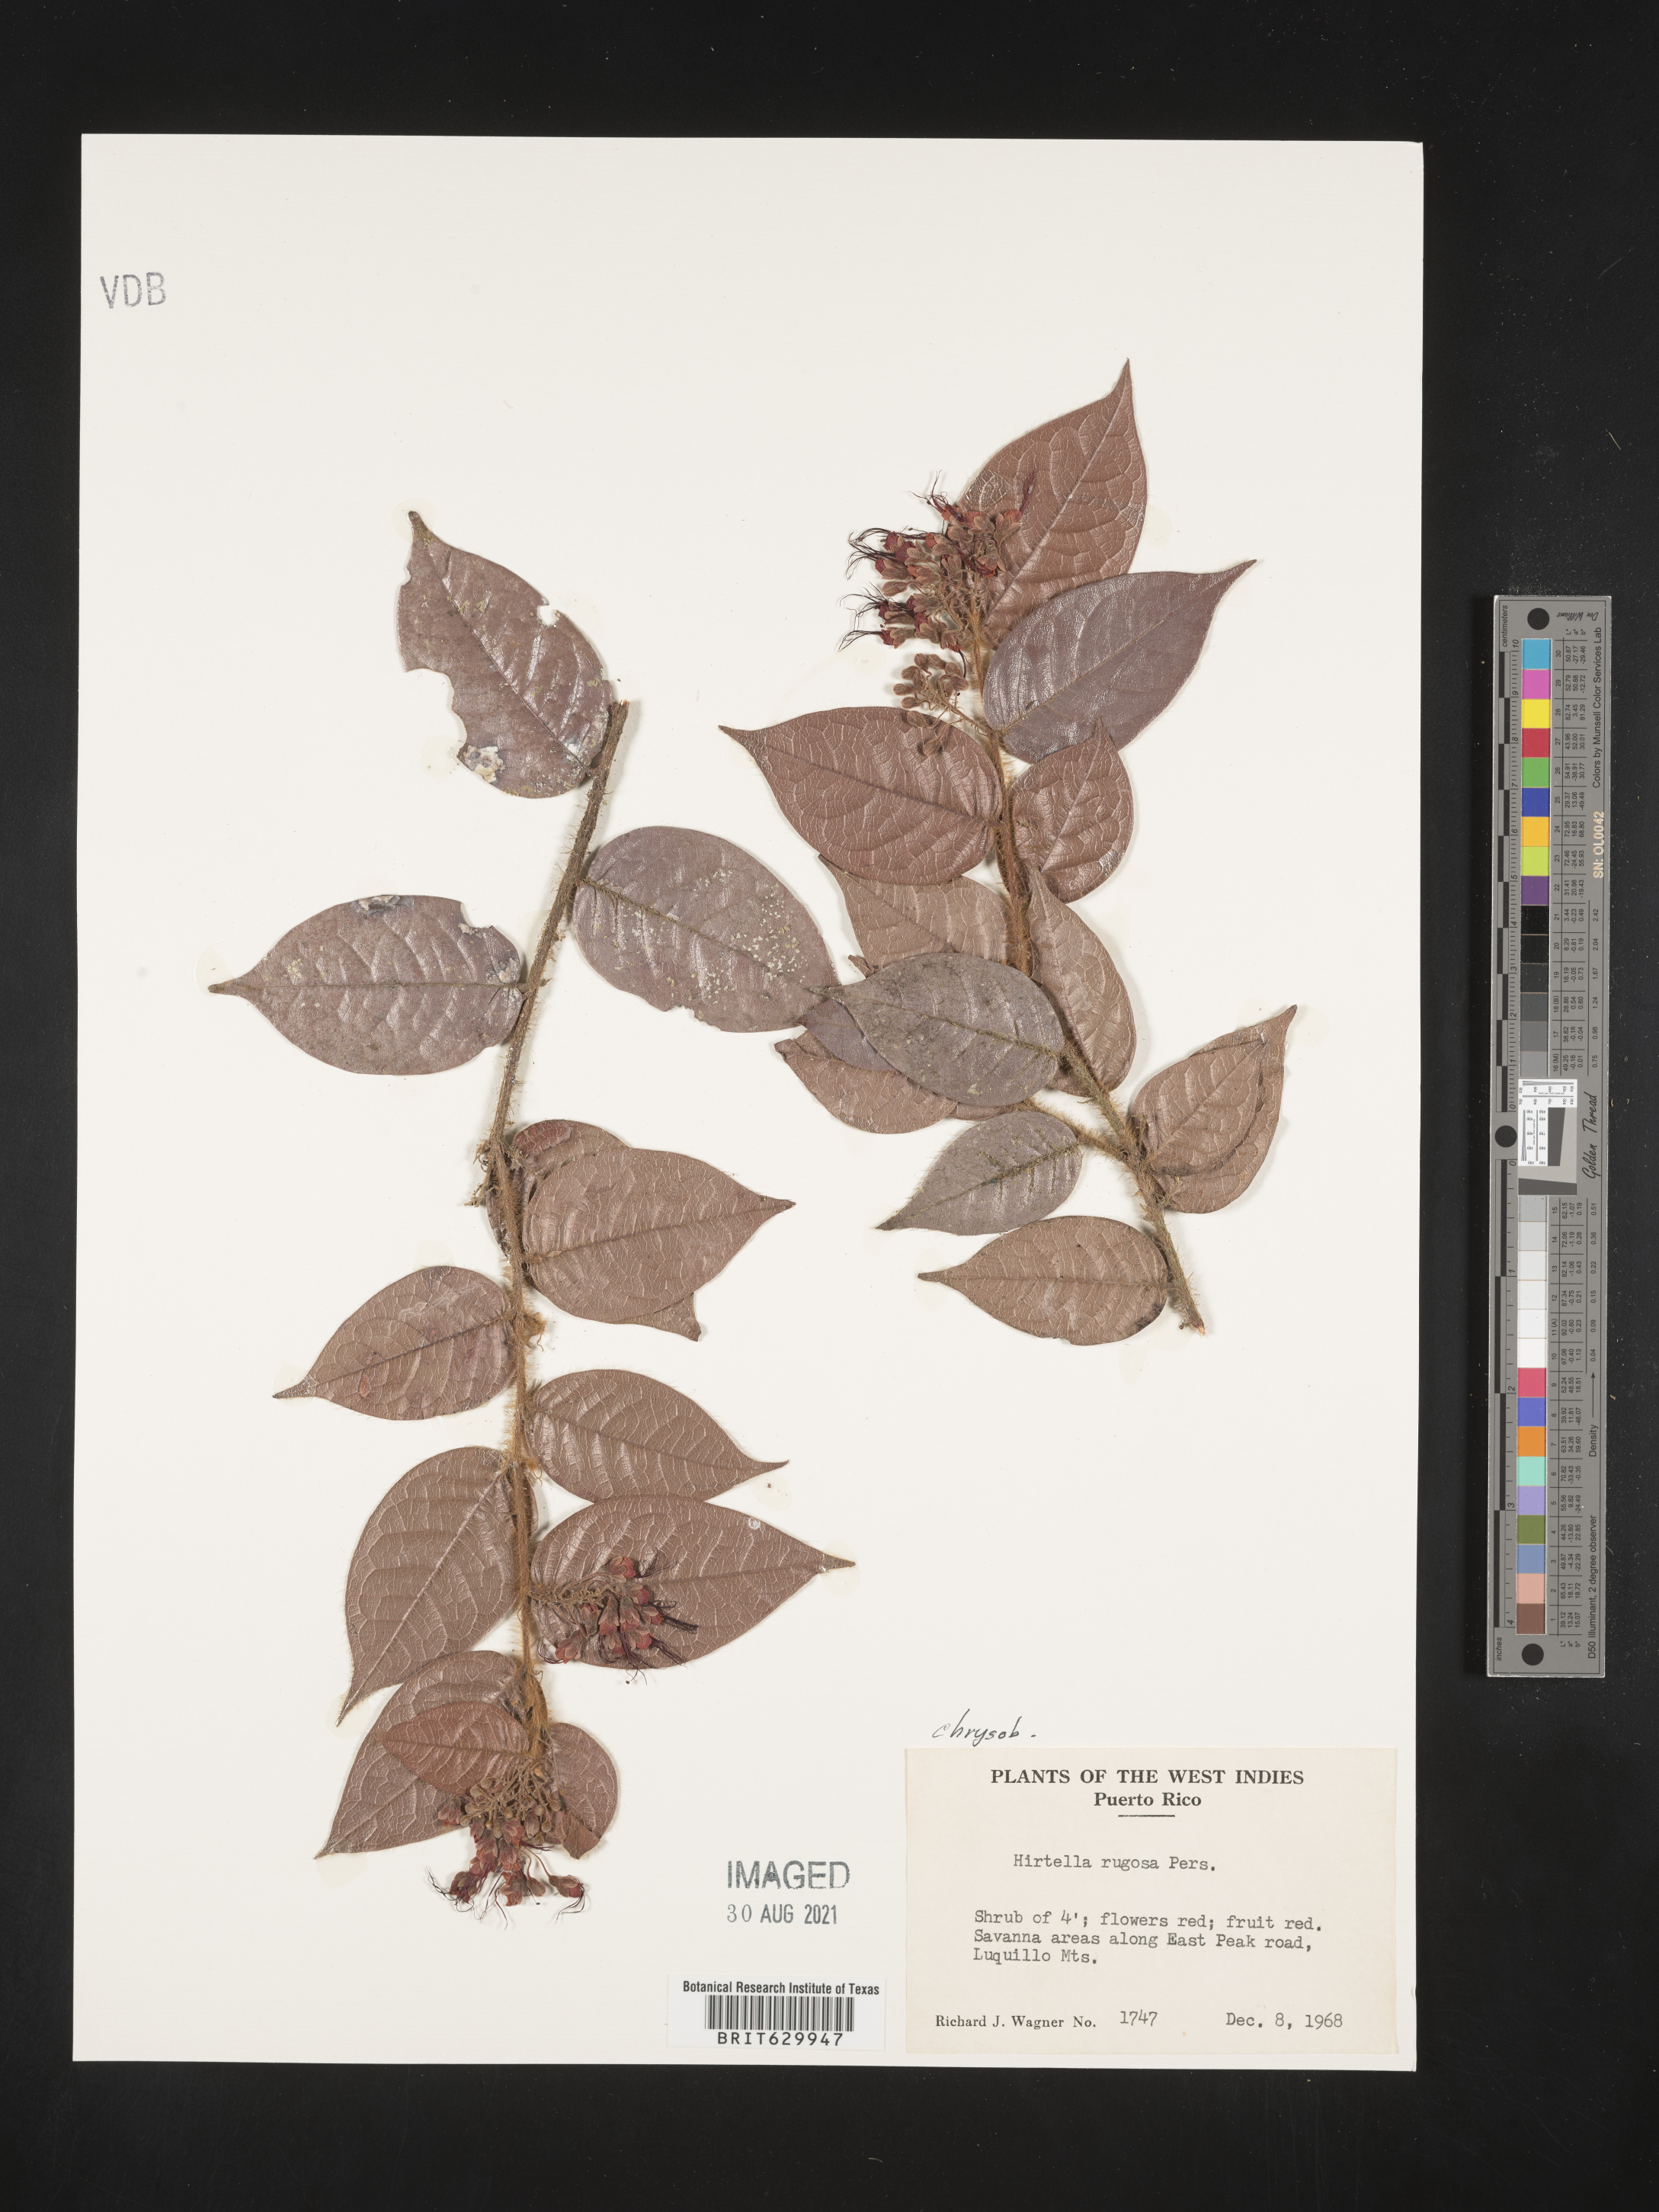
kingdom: Plantae
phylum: Tracheophyta
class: Magnoliopsida
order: Malpighiales
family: Chrysobalanaceae
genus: Hirtella
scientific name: Hirtella rugosa
